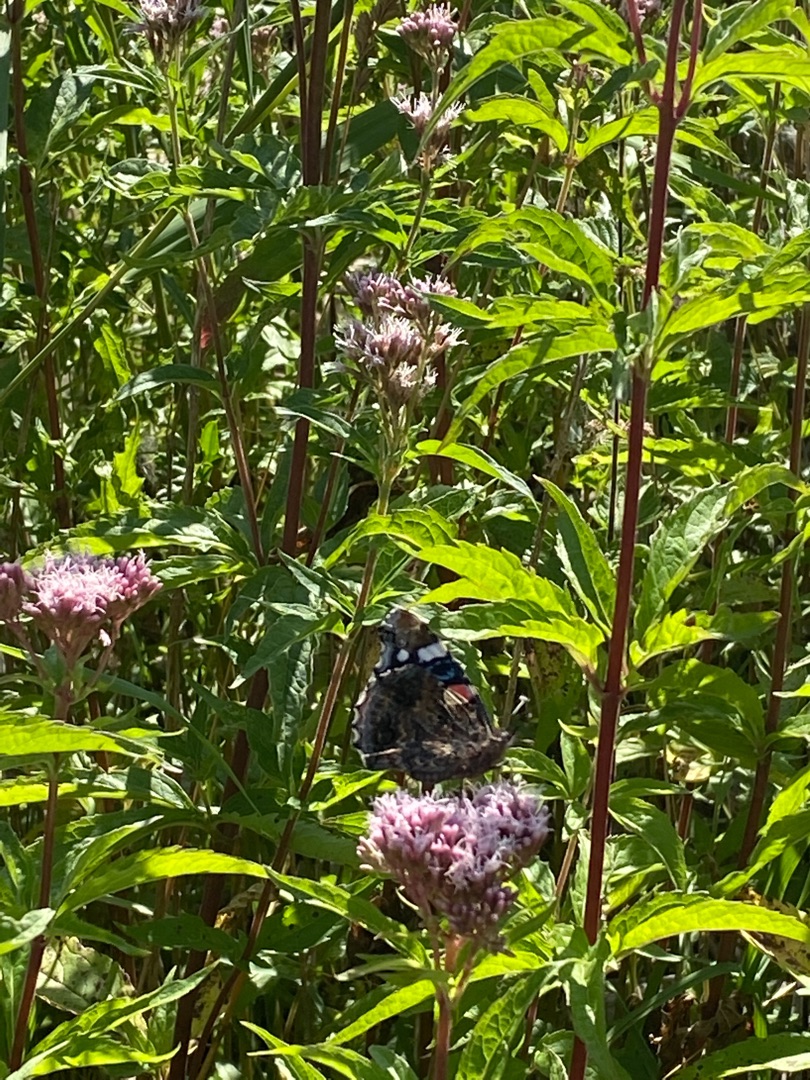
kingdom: Animalia
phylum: Arthropoda
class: Insecta
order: Lepidoptera
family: Nymphalidae
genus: Vanessa
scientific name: Vanessa atalanta
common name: Admiral
